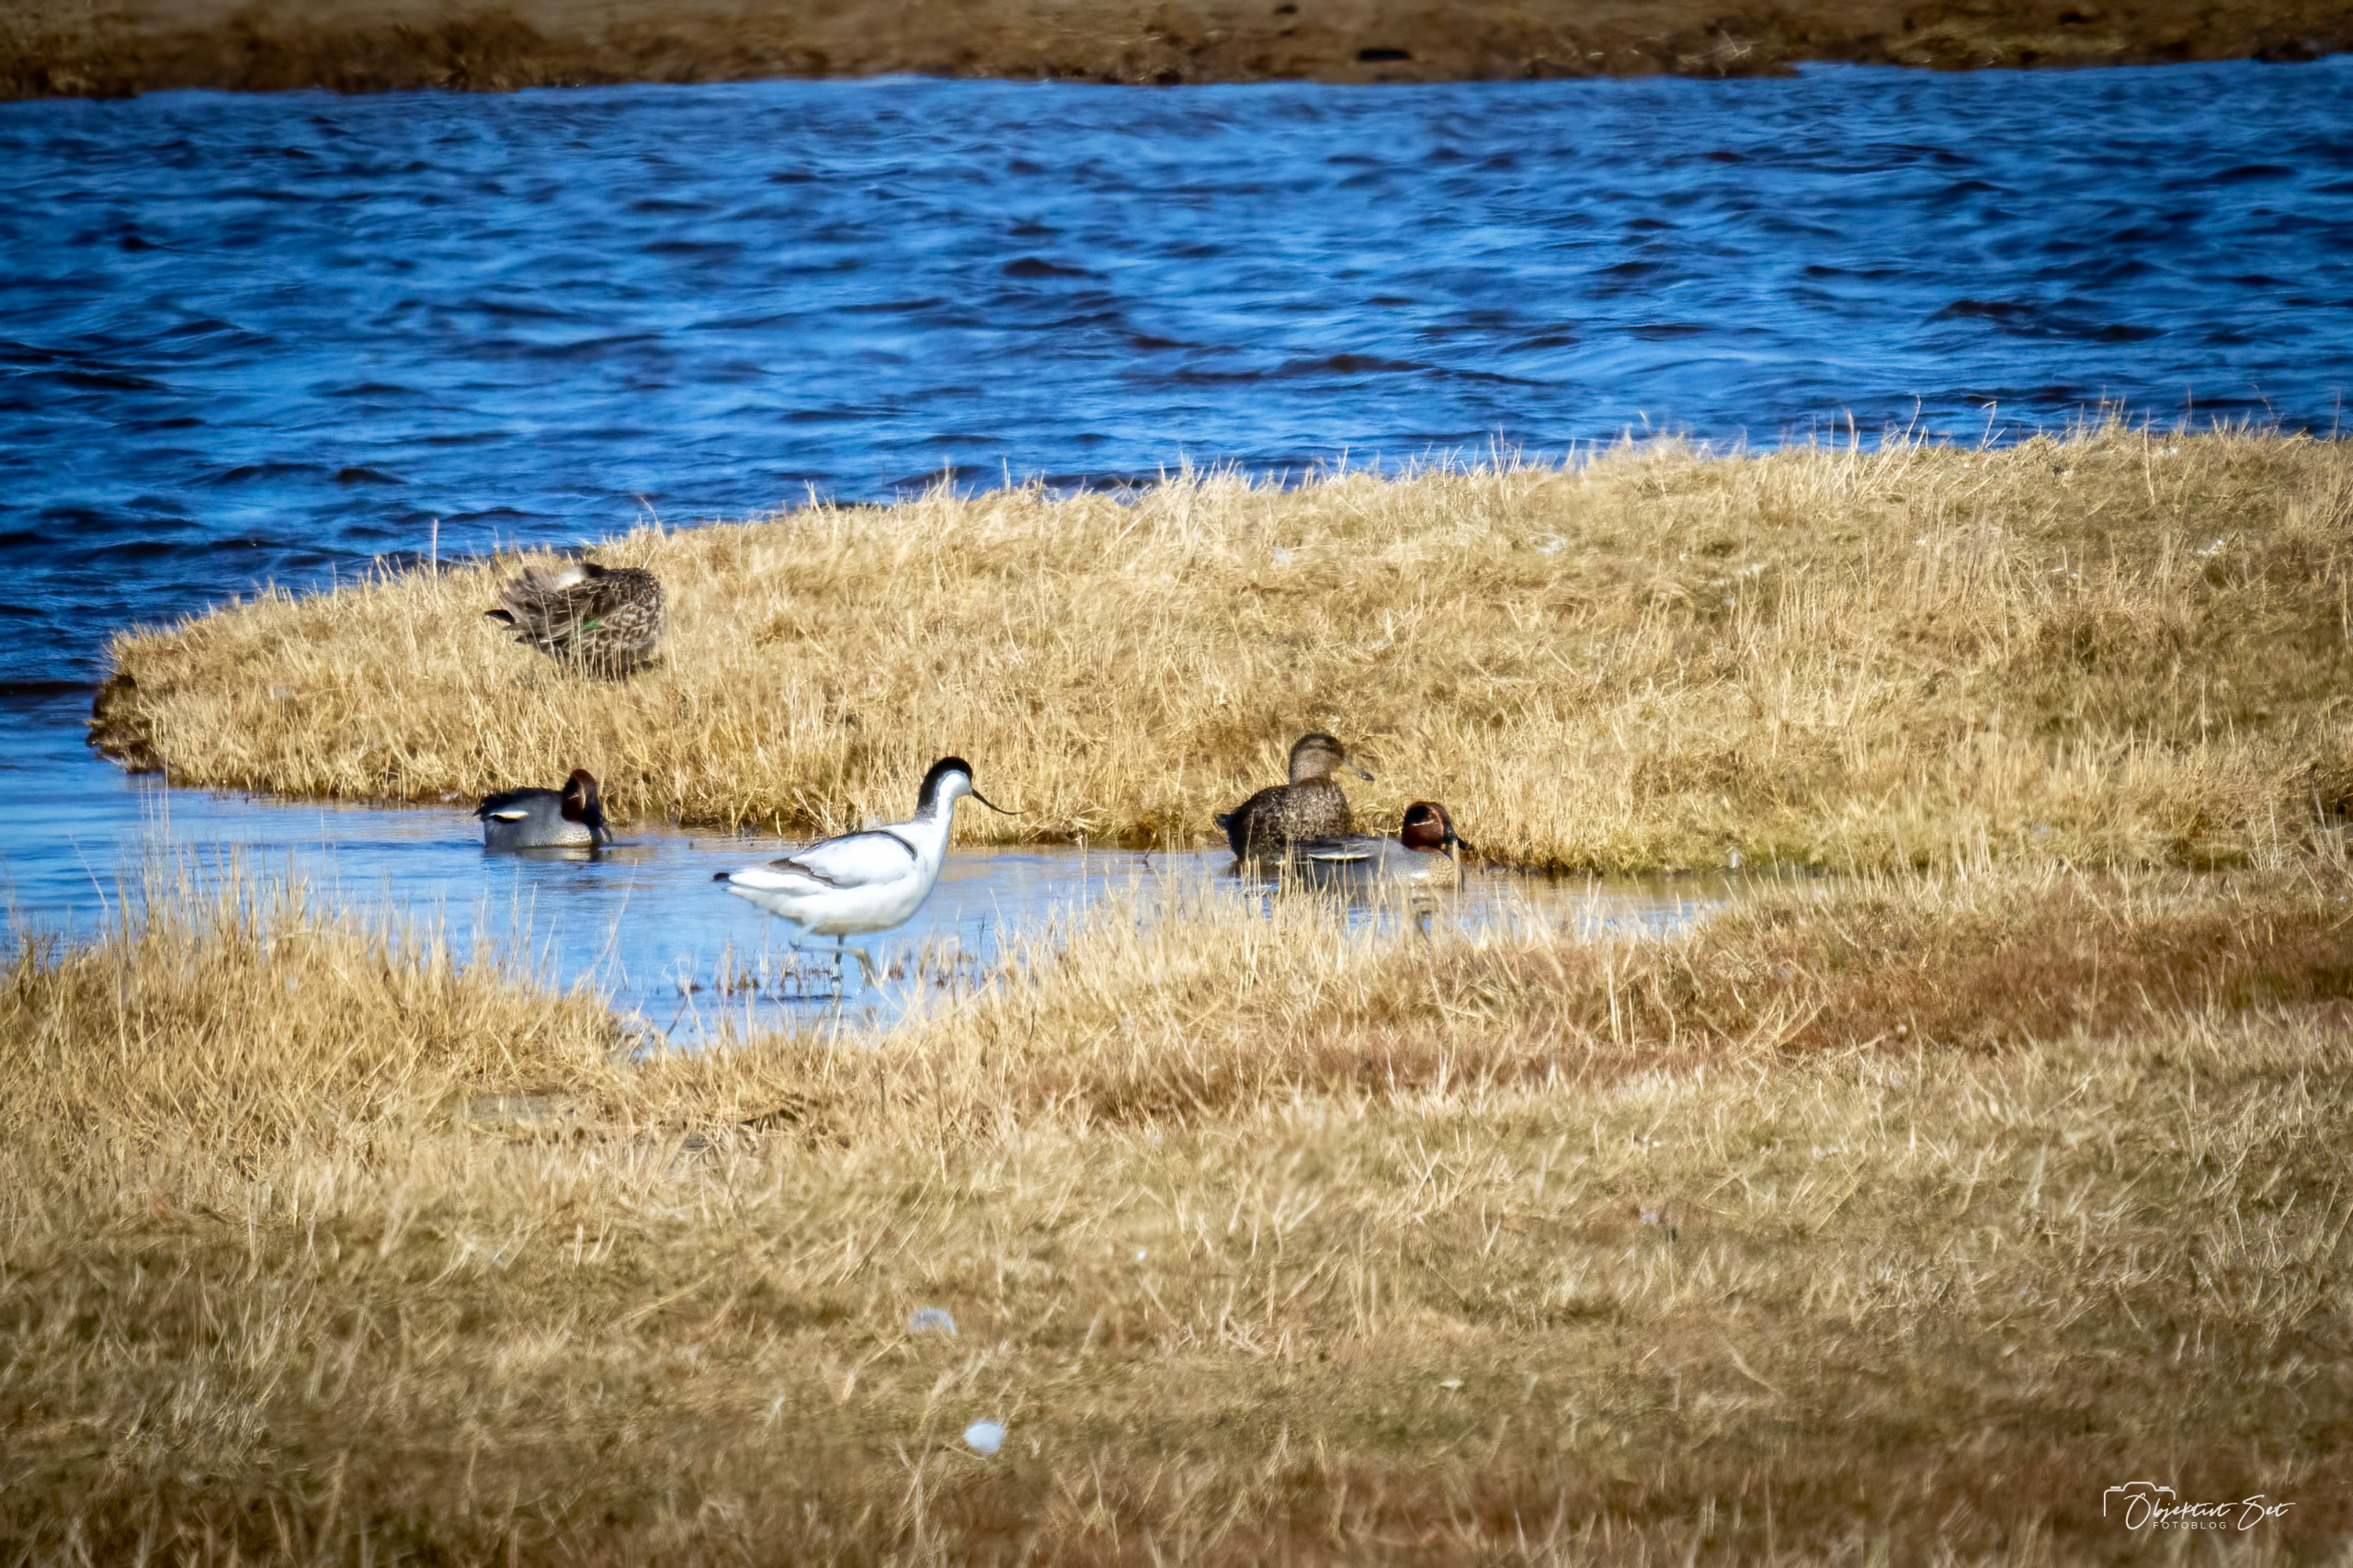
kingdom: Animalia
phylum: Chordata
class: Aves
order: Charadriiformes
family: Recurvirostridae
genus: Recurvirostra
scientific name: Recurvirostra avosetta
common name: Klyde
